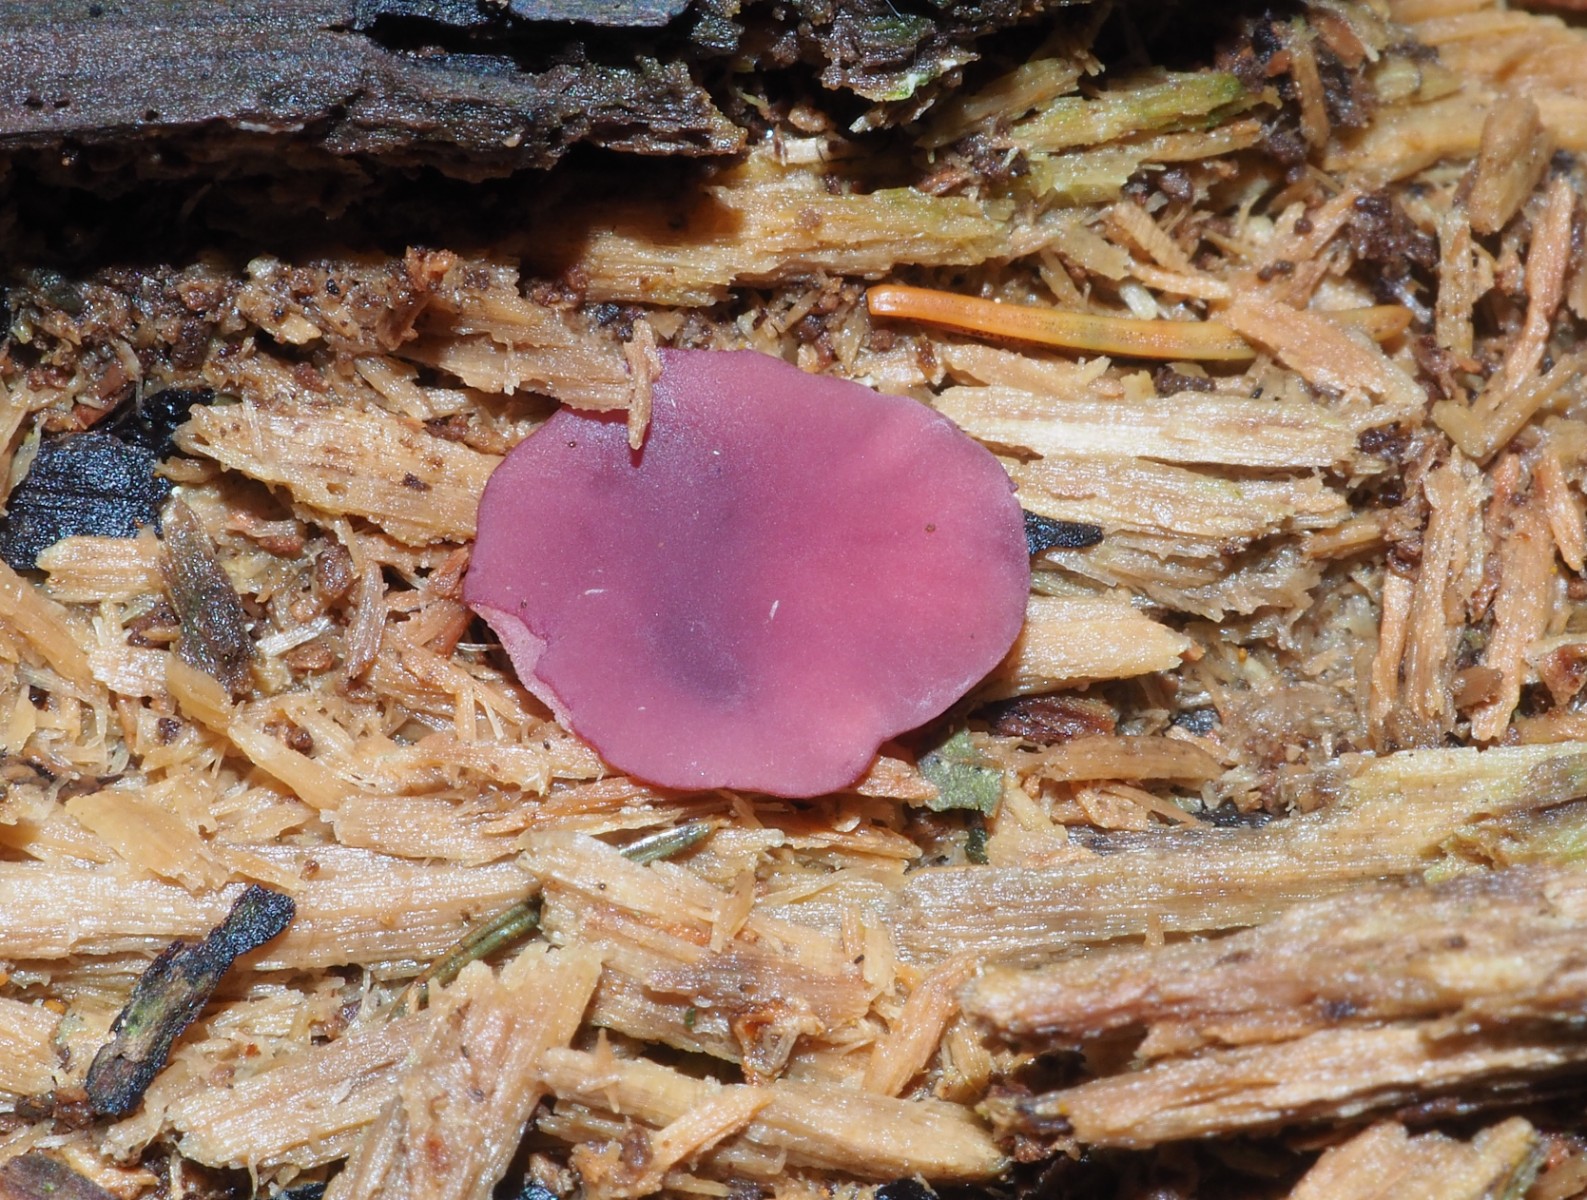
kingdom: Fungi
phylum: Ascomycota
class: Leotiomycetes
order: Helotiales
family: Gelatinodiscaceae
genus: Ascocoryne
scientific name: Ascocoryne cylichnium
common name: stor sejskive
